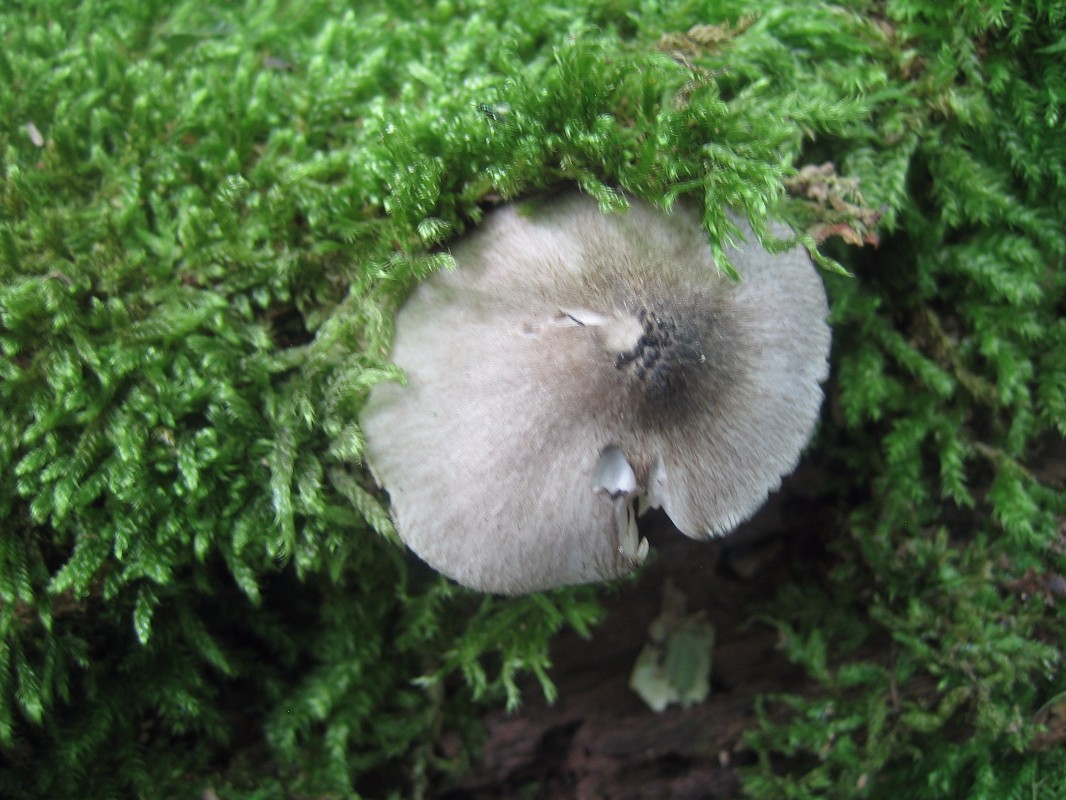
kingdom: Fungi
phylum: Basidiomycota
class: Agaricomycetes
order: Agaricales
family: Pluteaceae
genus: Pluteus
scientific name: Pluteus salicinus
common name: stiv skærmhat
